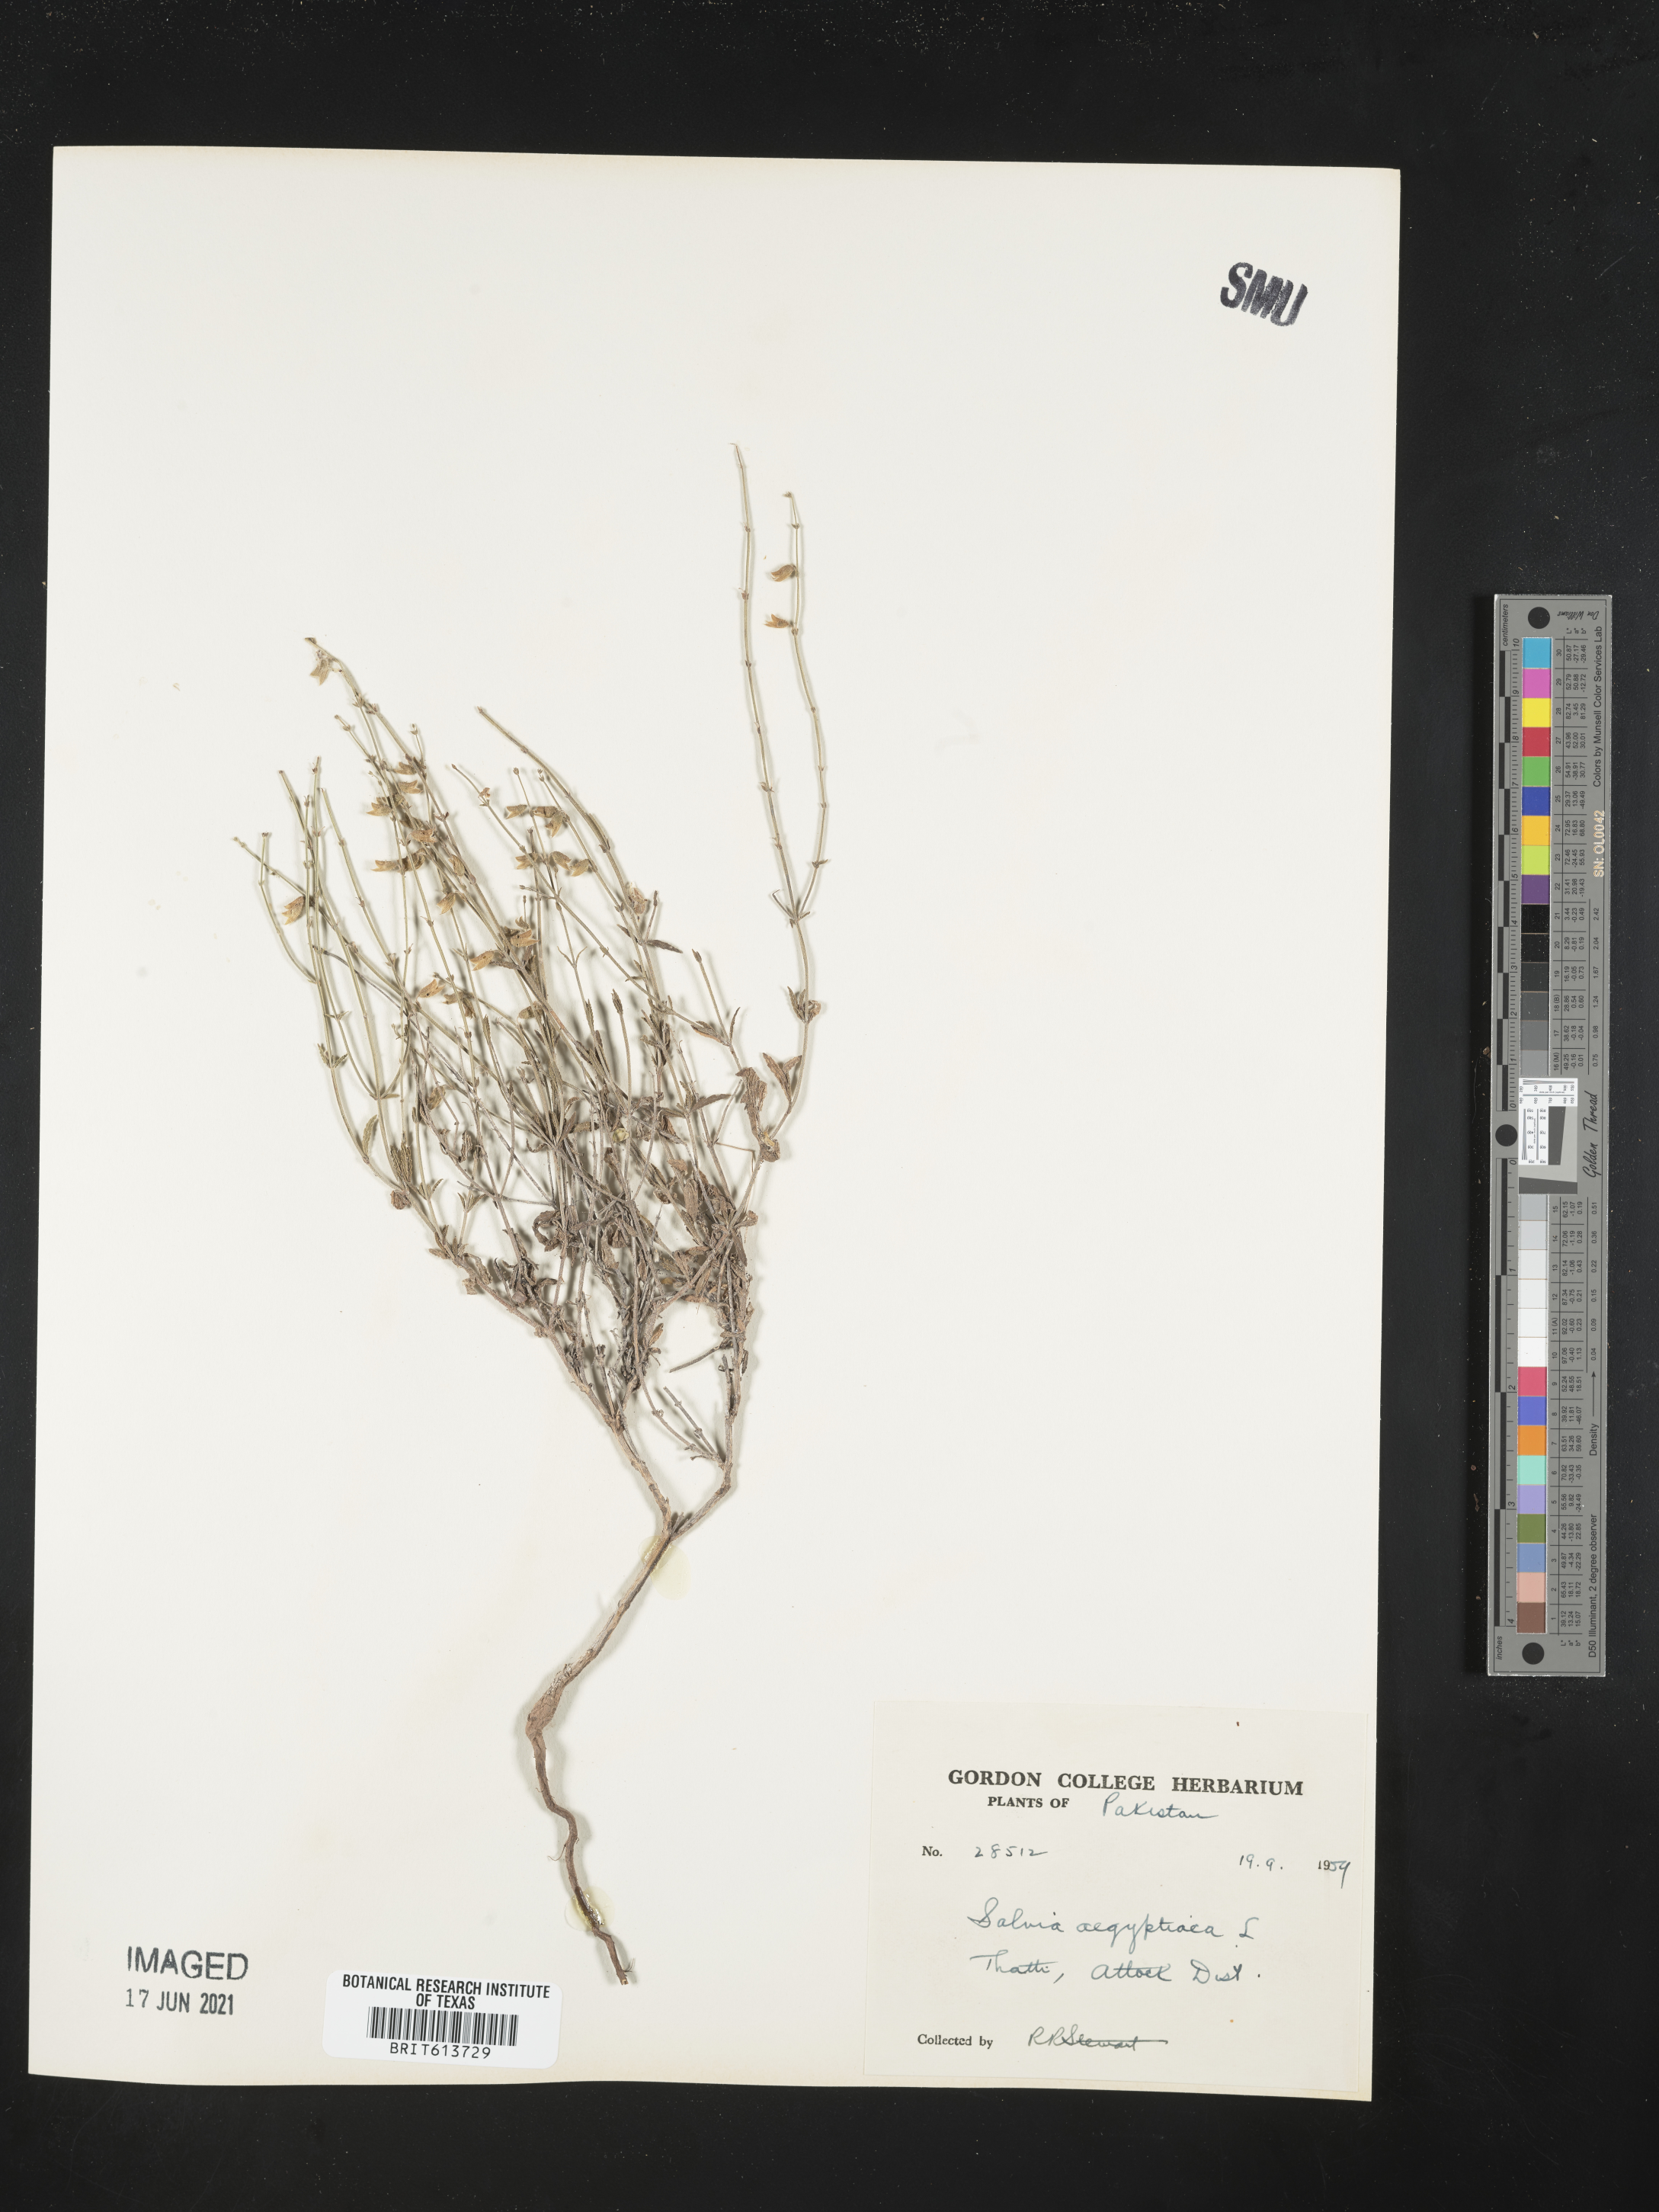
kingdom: Plantae
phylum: Tracheophyta
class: Magnoliopsida
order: Lamiales
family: Lamiaceae
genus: Salvia
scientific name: Salvia aegyptiaca
